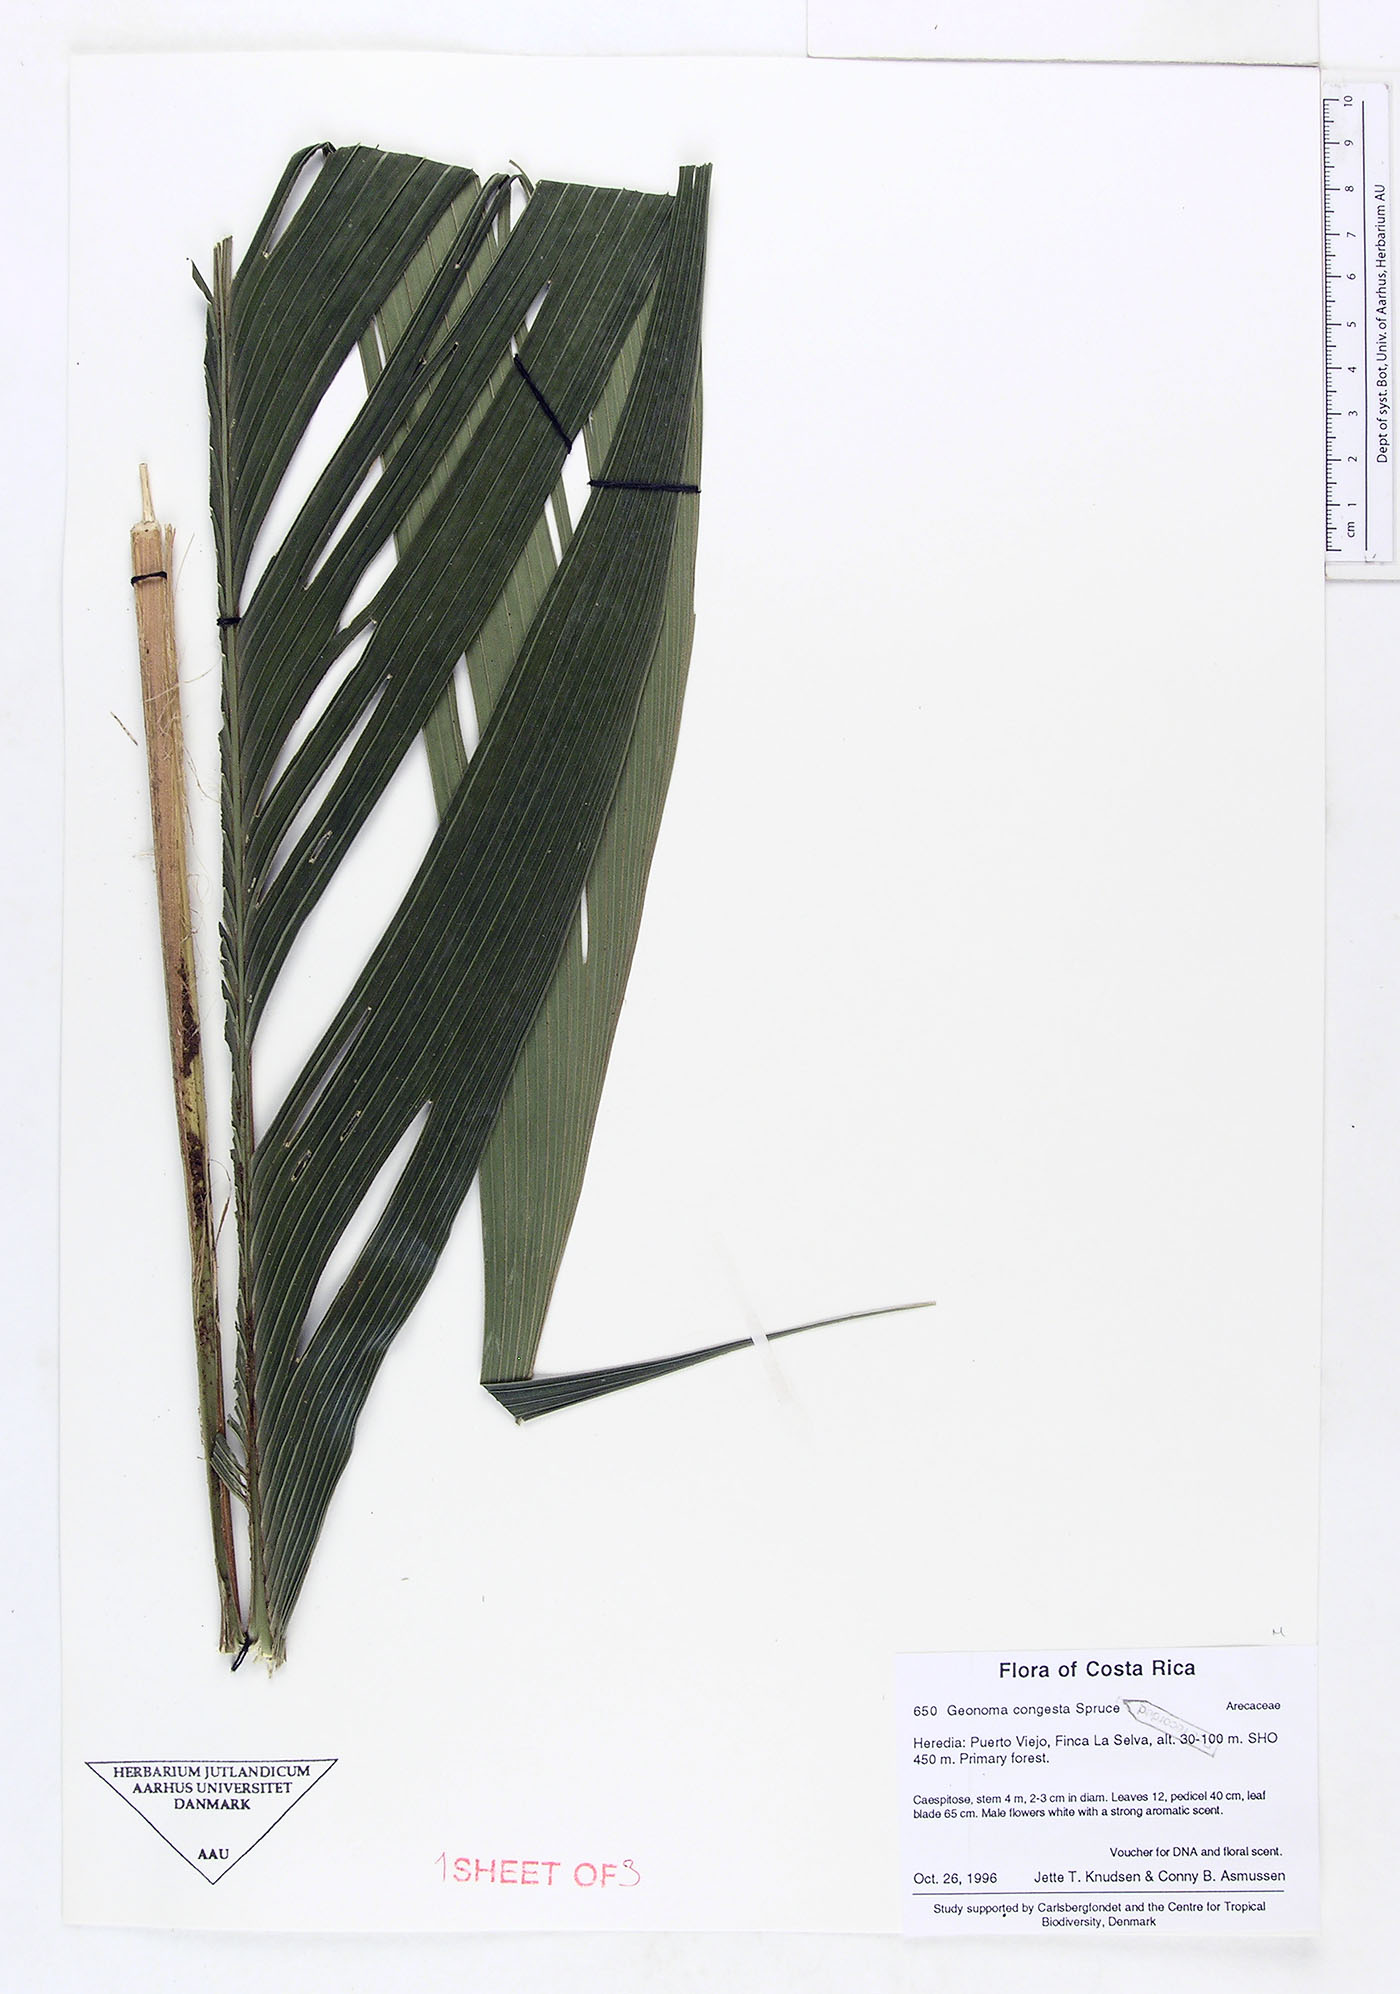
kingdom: Plantae
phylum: Tracheophyta
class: Liliopsida
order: Arecales
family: Arecaceae
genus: Geonoma
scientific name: Geonoma congesta
